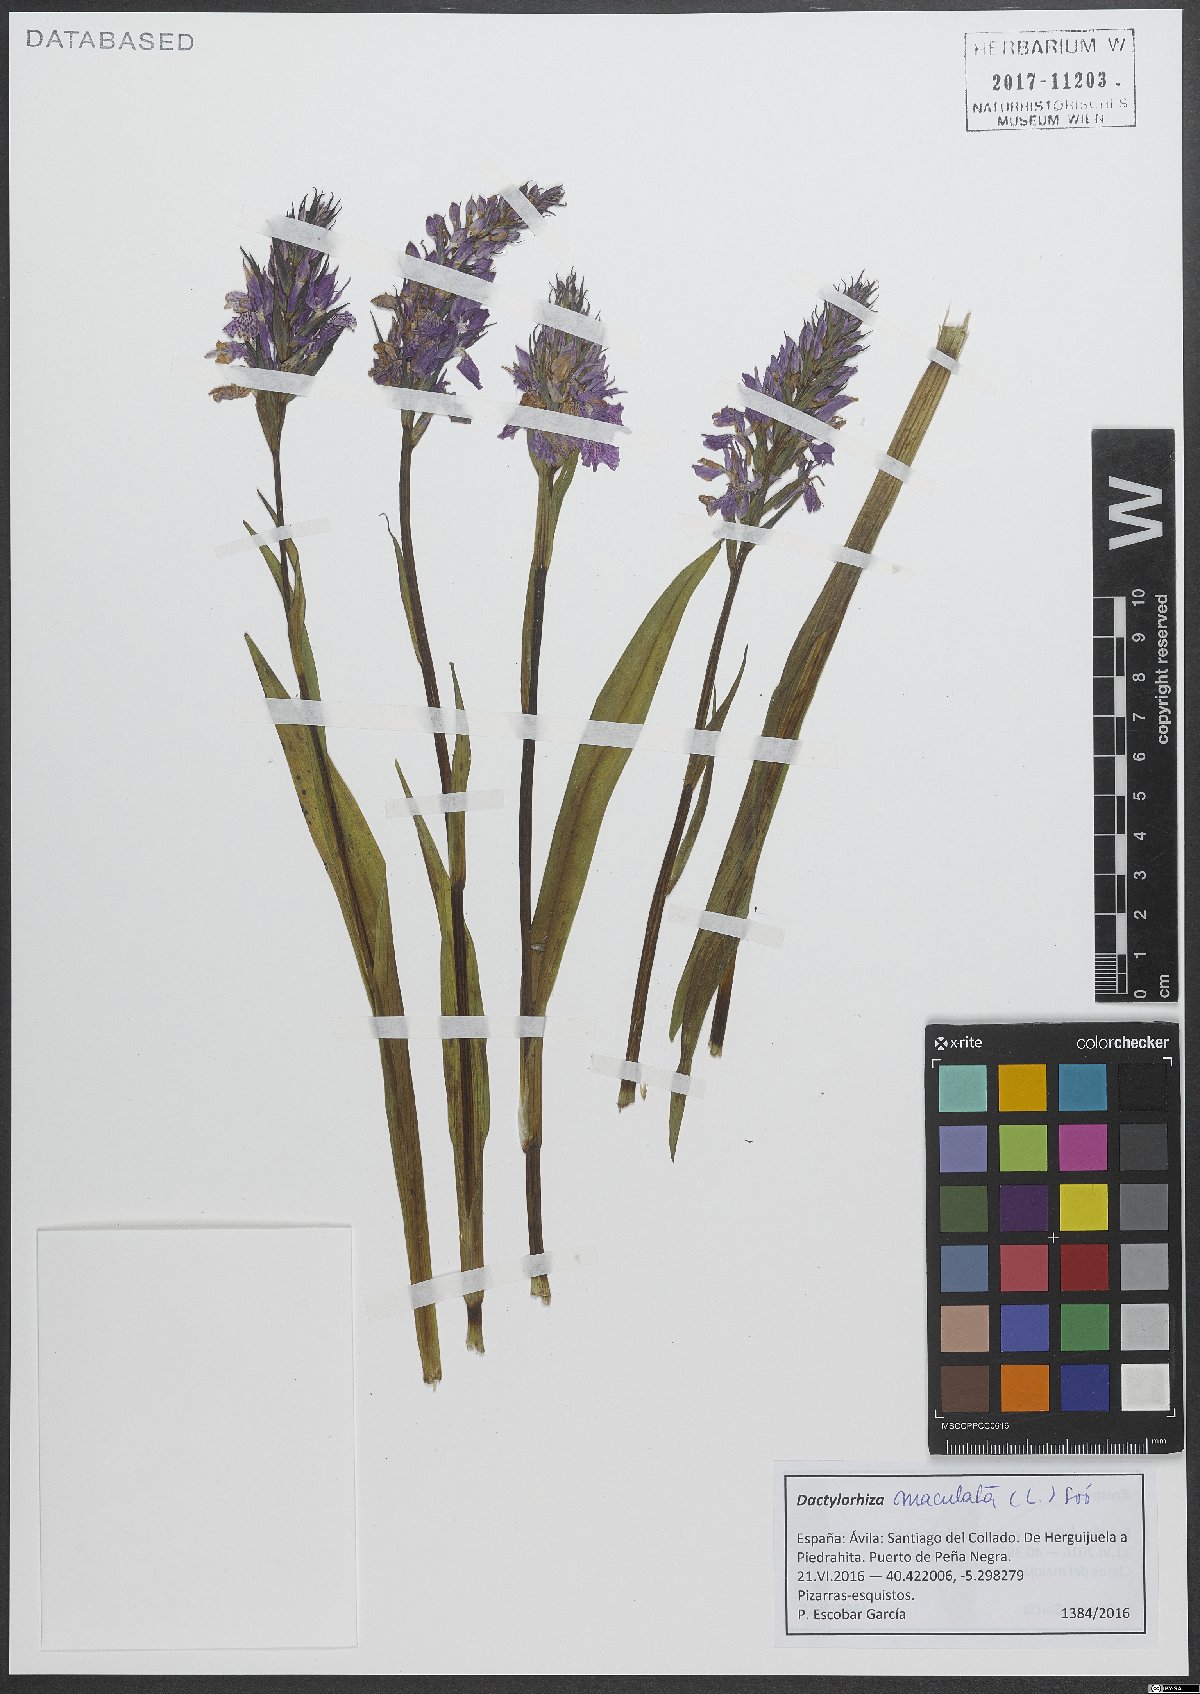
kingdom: Plantae
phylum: Tracheophyta
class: Liliopsida
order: Asparagales
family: Orchidaceae
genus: Dactylorhiza
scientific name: Dactylorhiza maculata
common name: Heath spotted-orchid
